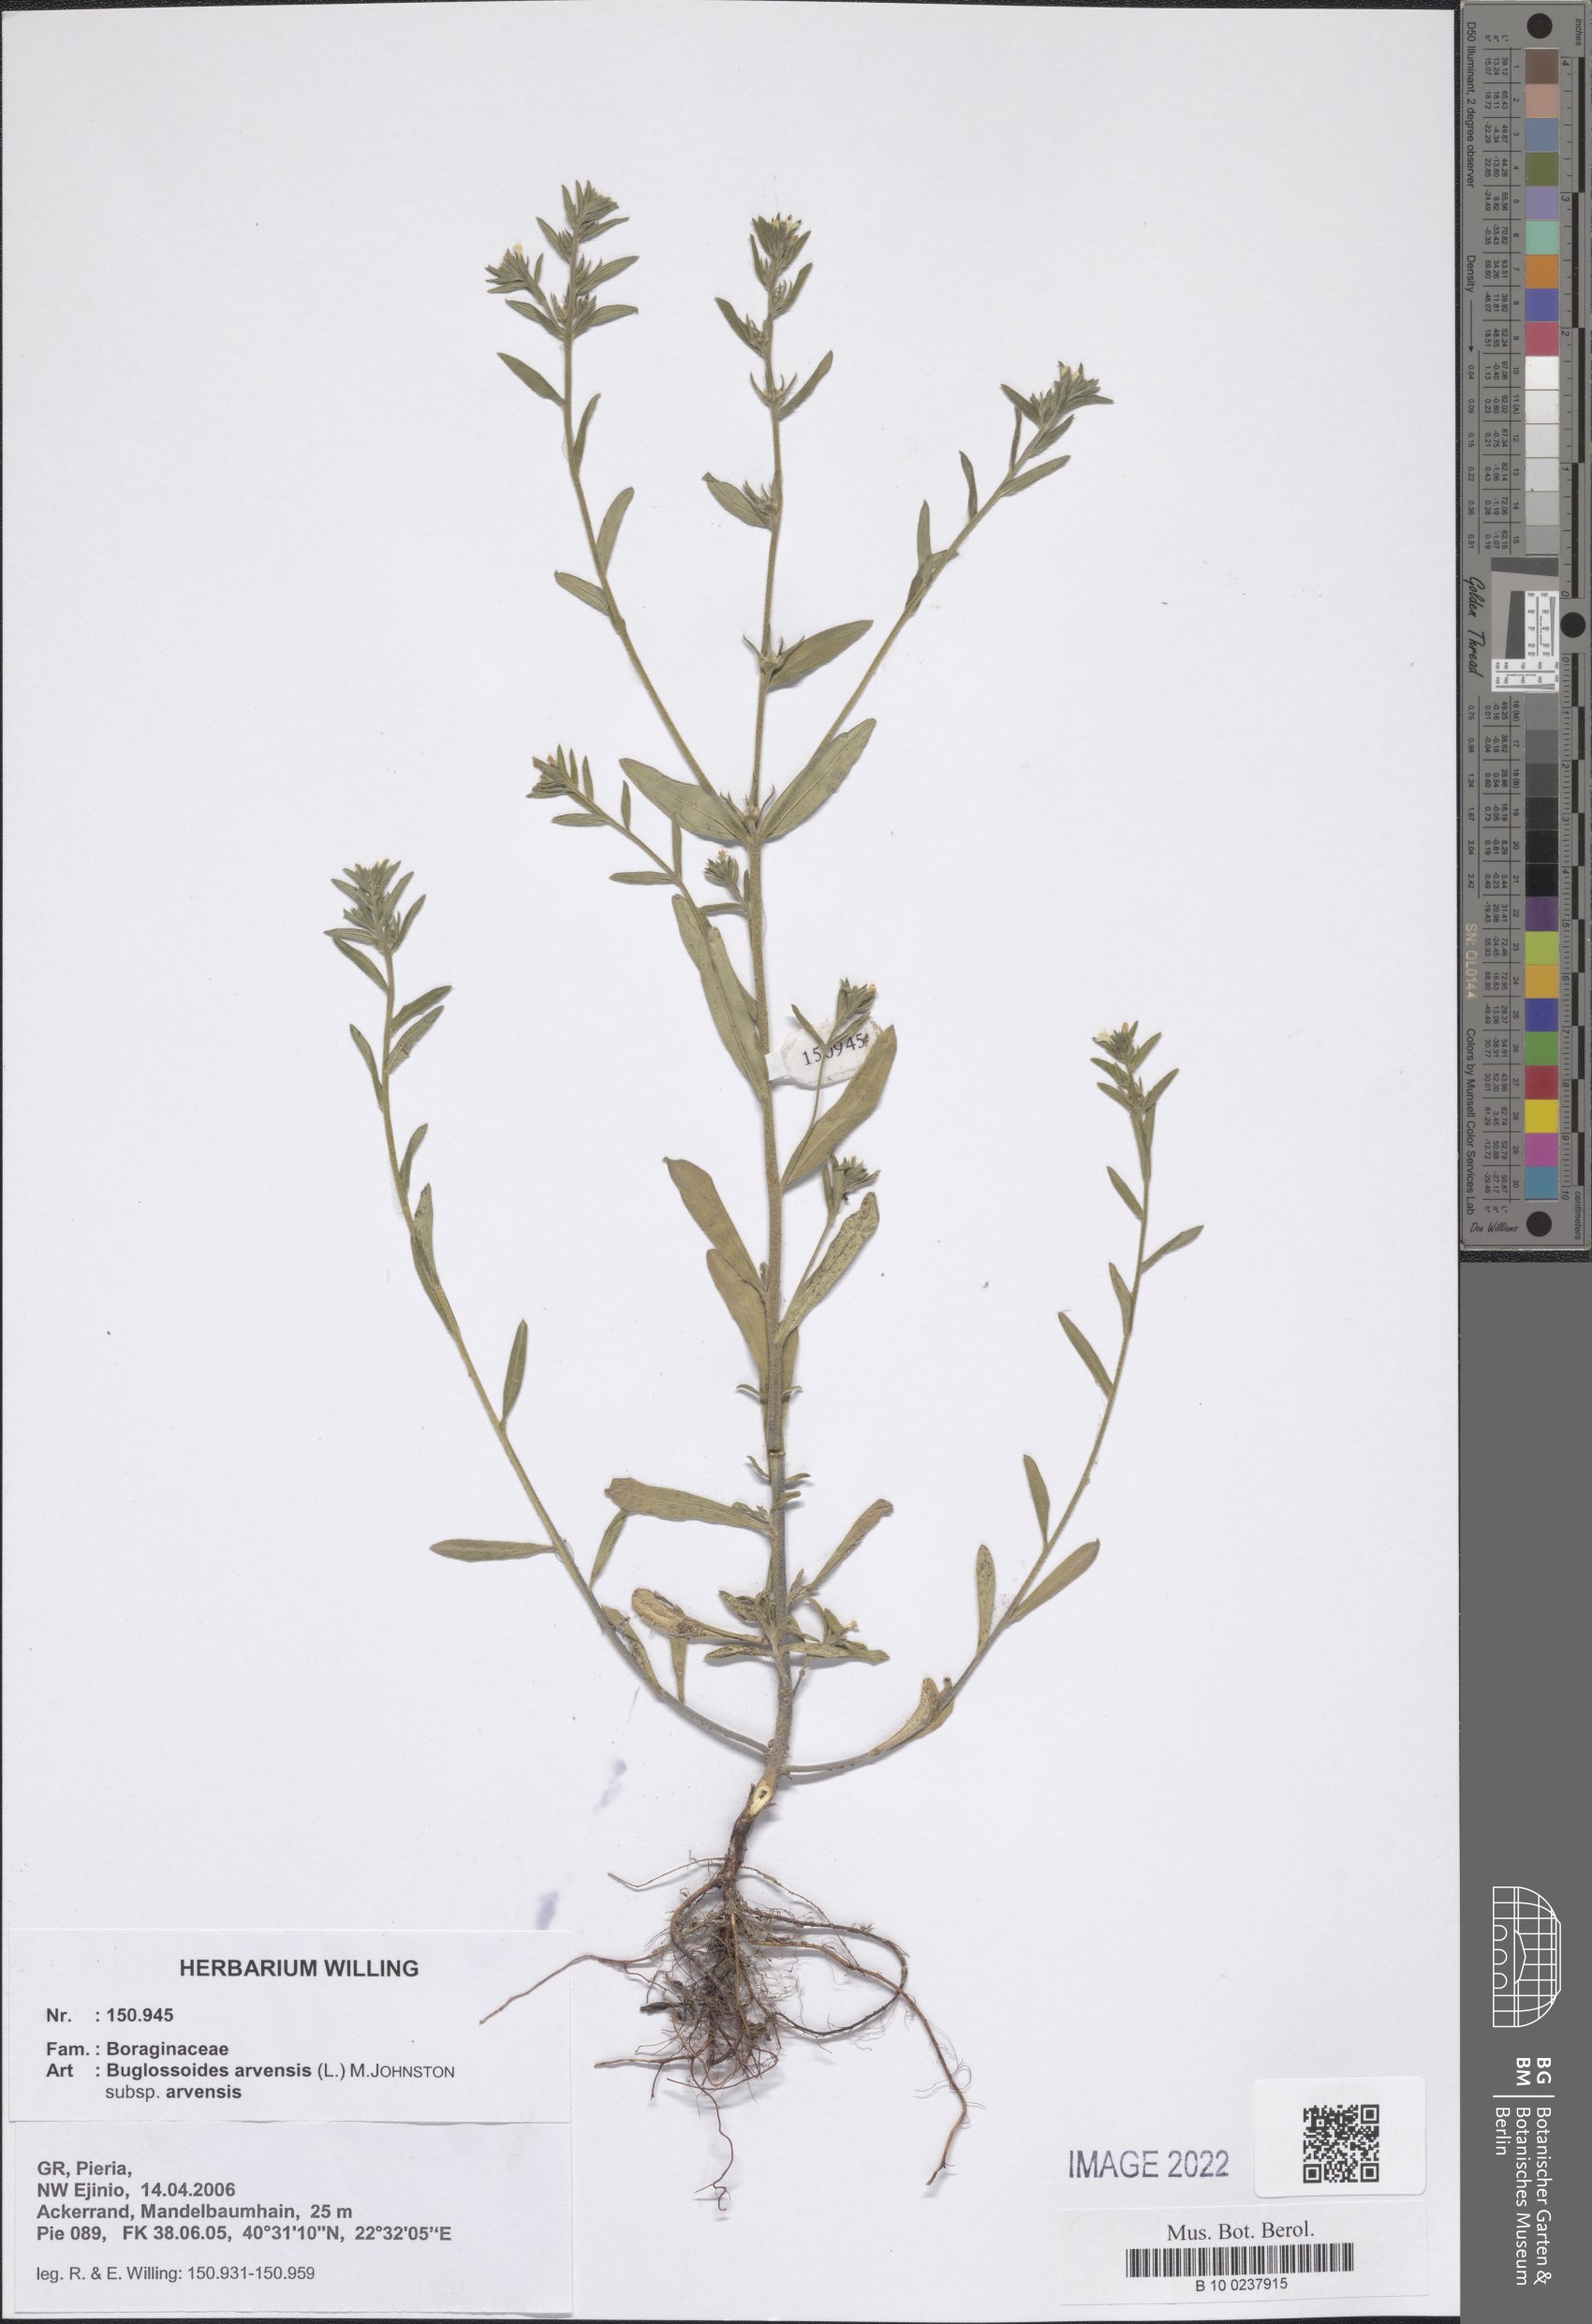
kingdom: Plantae
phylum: Tracheophyta
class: Magnoliopsida
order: Boraginales
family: Boraginaceae
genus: Buglossoides
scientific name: Buglossoides arvensis
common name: Corn gromwell
